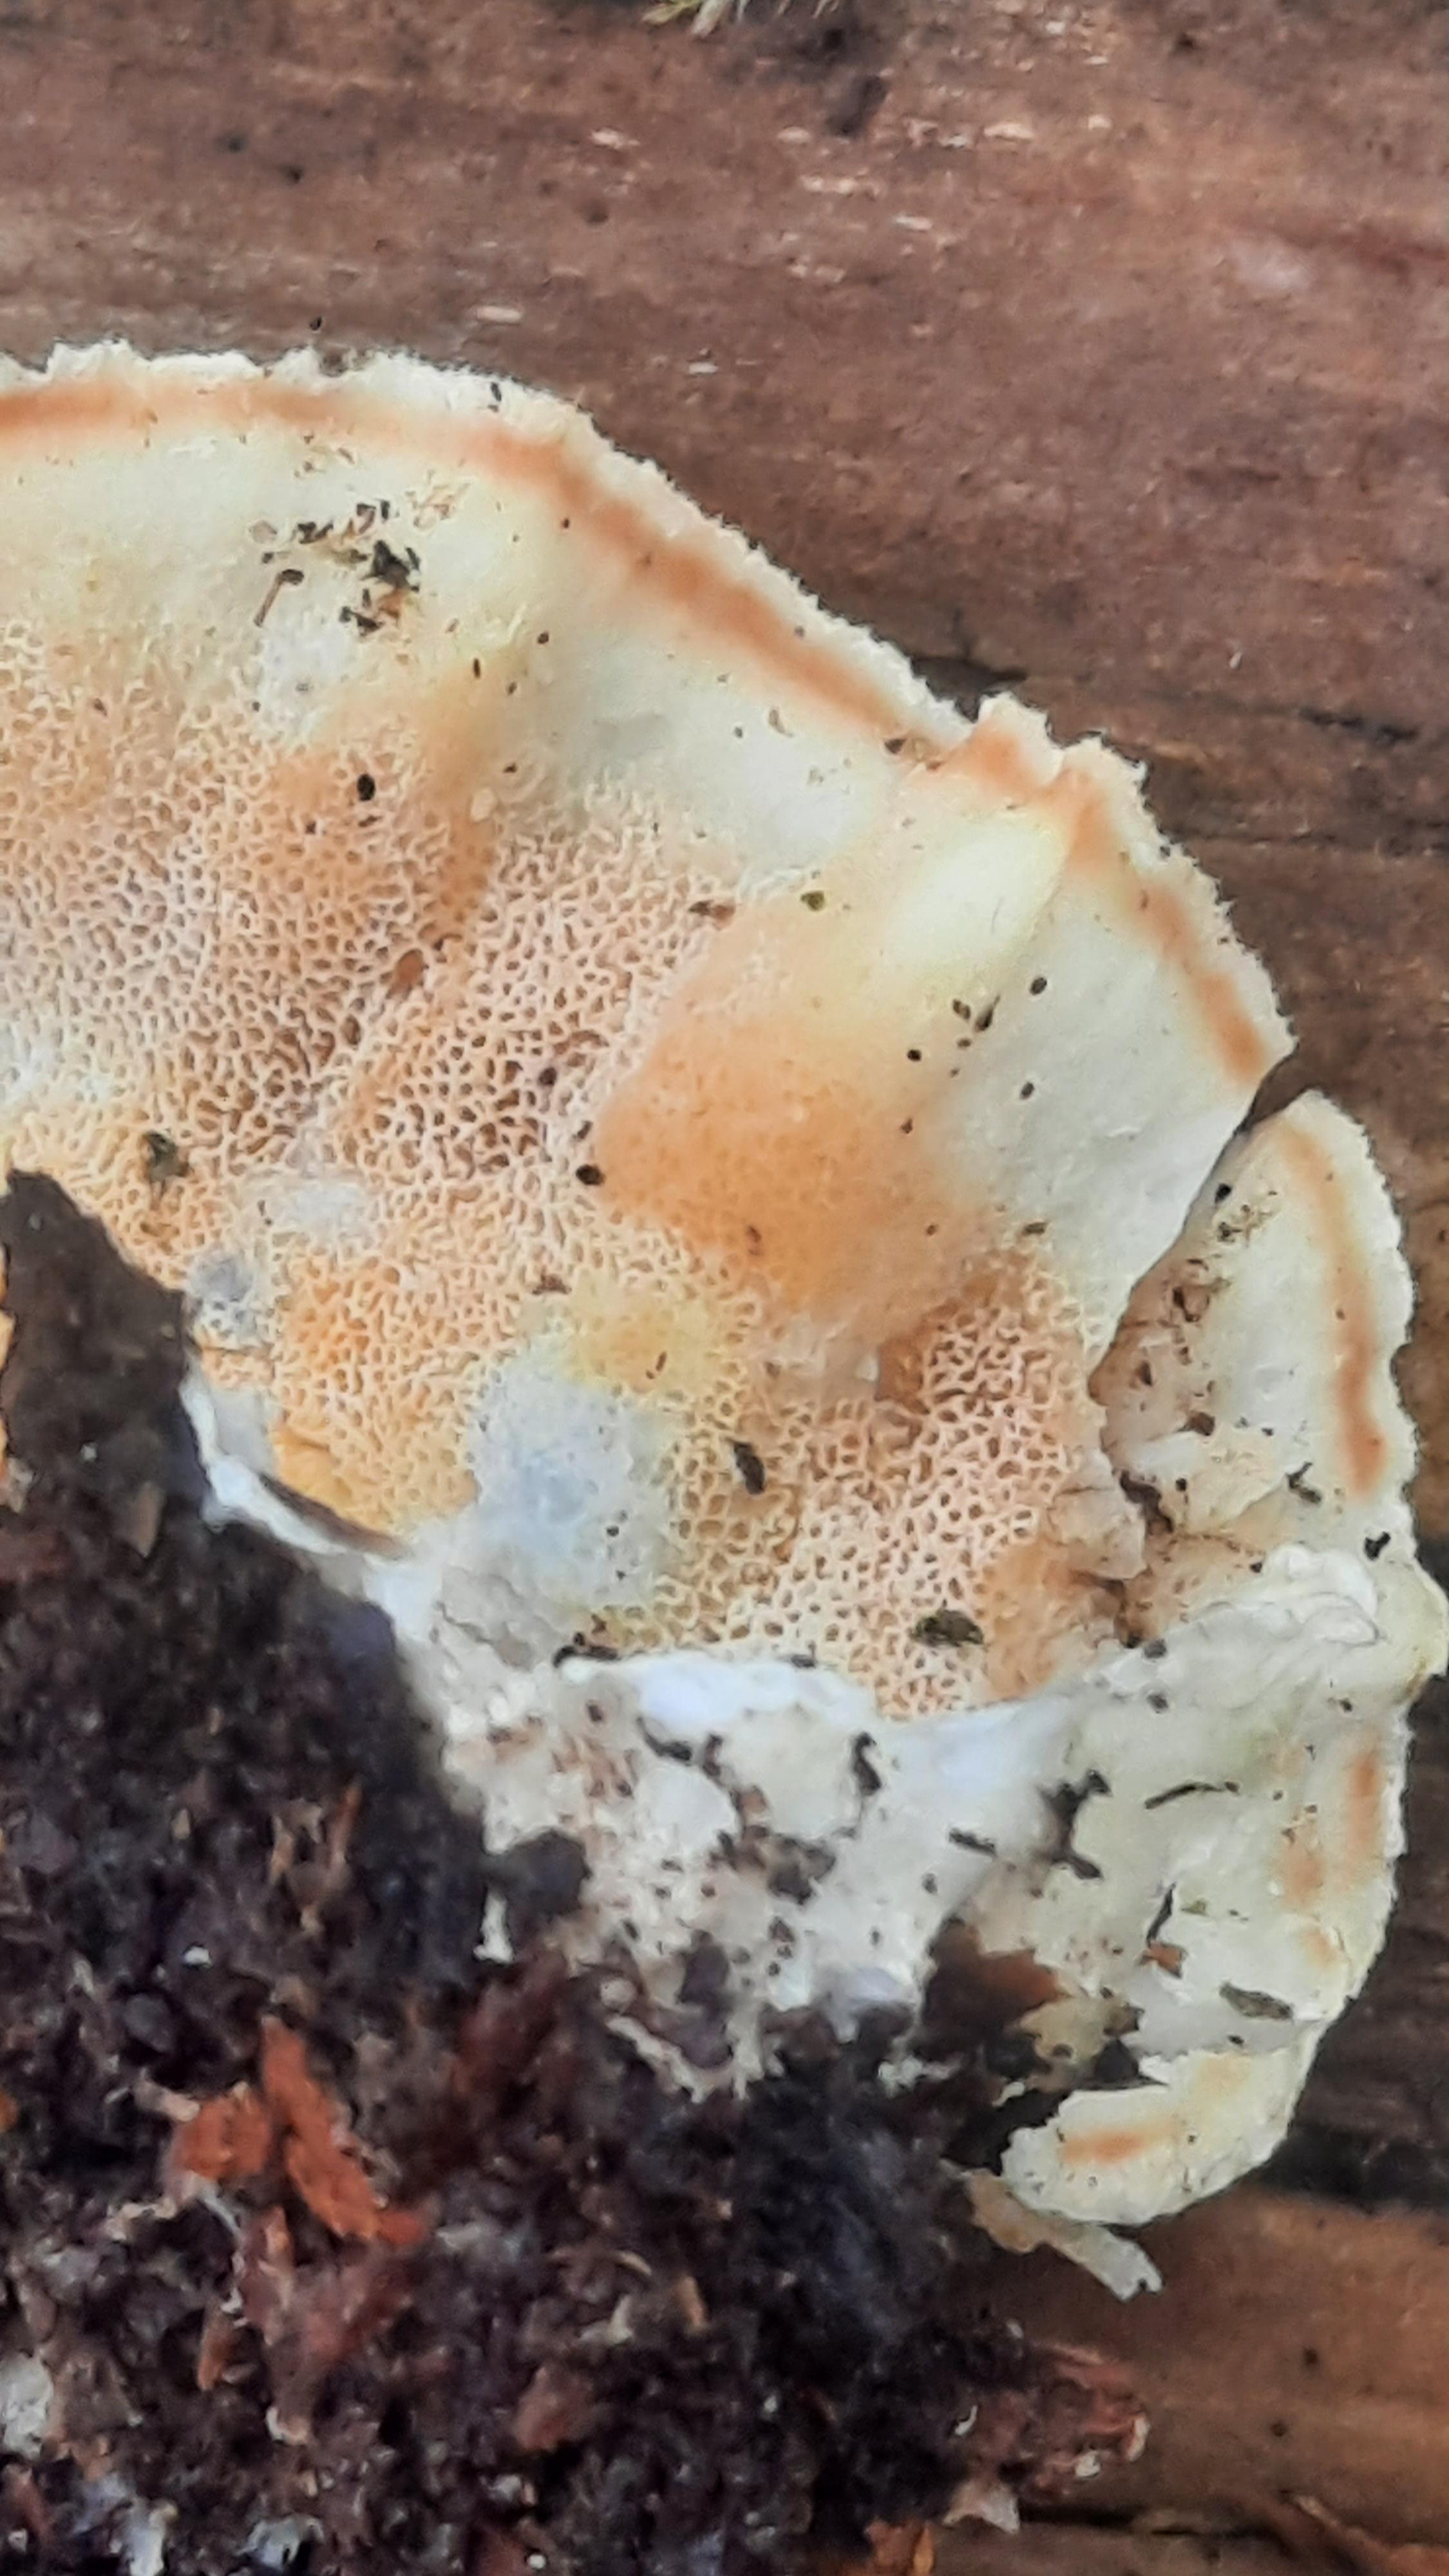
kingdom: Fungi
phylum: Basidiomycota
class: Agaricomycetes
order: Polyporales
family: Incrustoporiaceae
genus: Skeletocutis
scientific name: Skeletocutis amorpha
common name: orange krystalporesvamp
